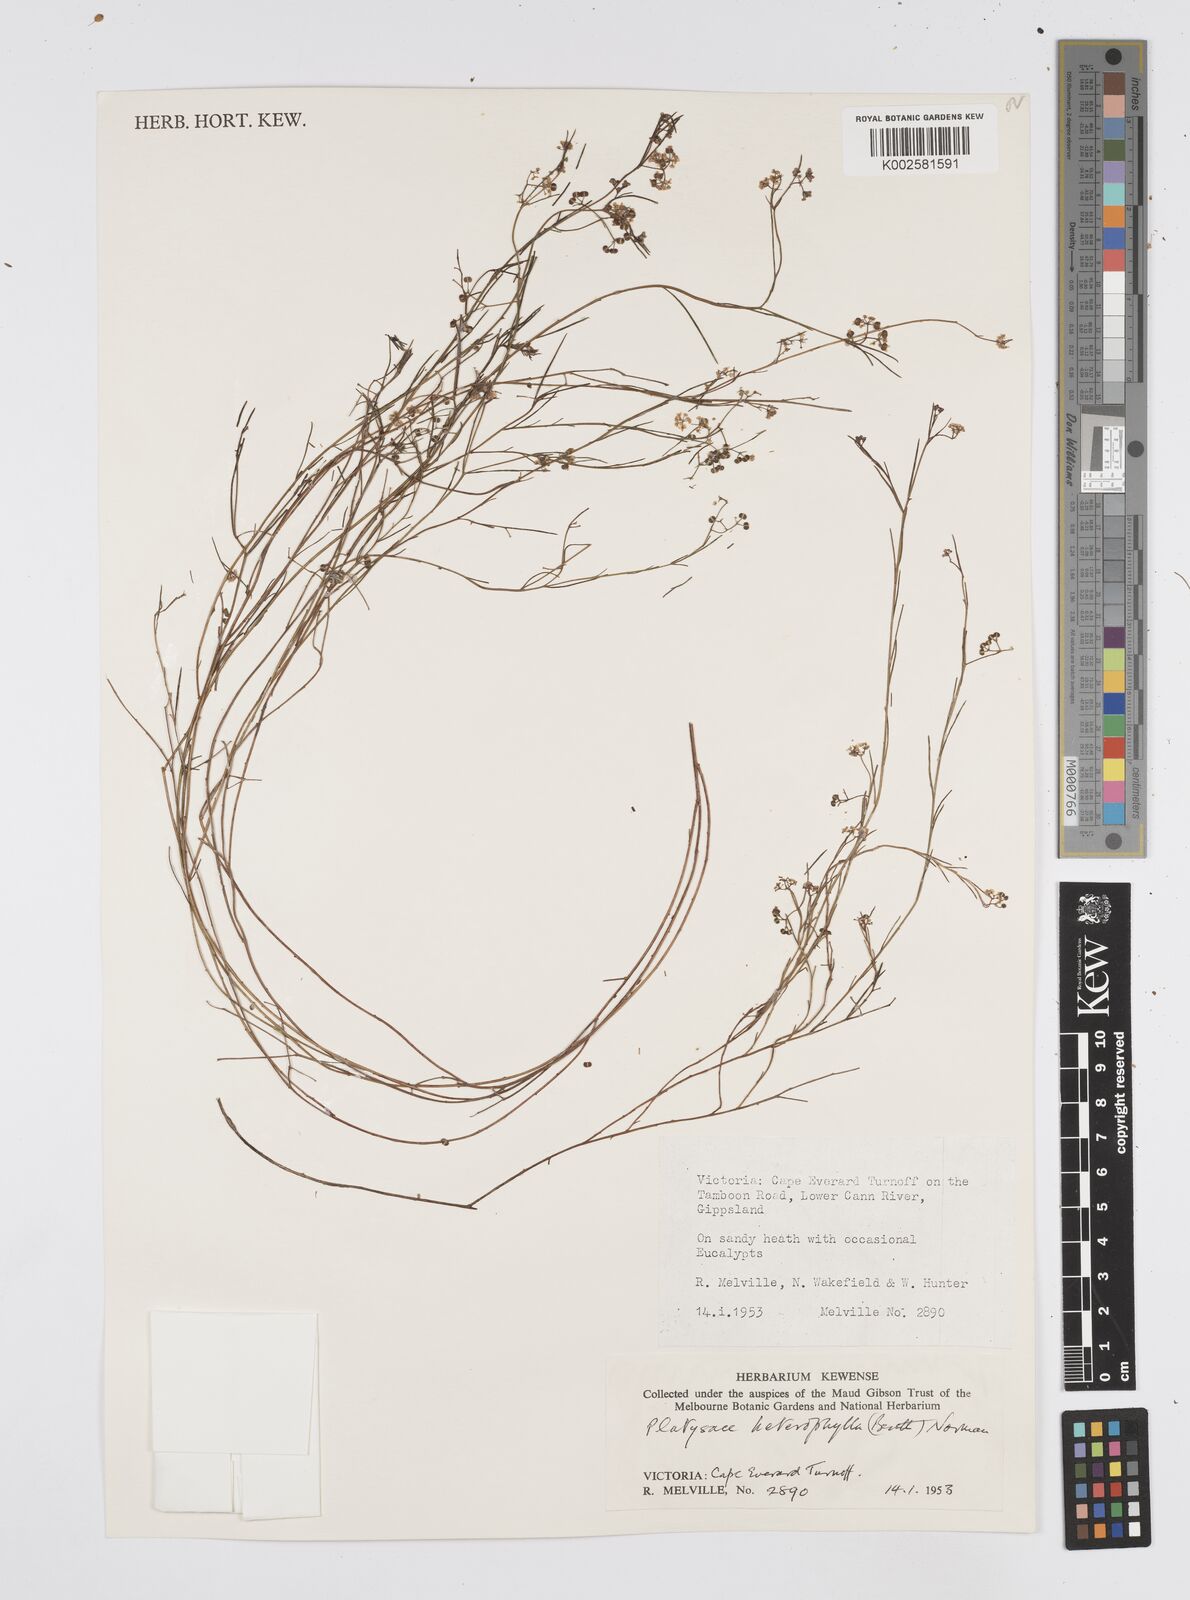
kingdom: Plantae
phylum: Tracheophyta
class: Magnoliopsida
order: Apiales
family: Apiaceae
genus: Platysace
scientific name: Platysace heterophylla
